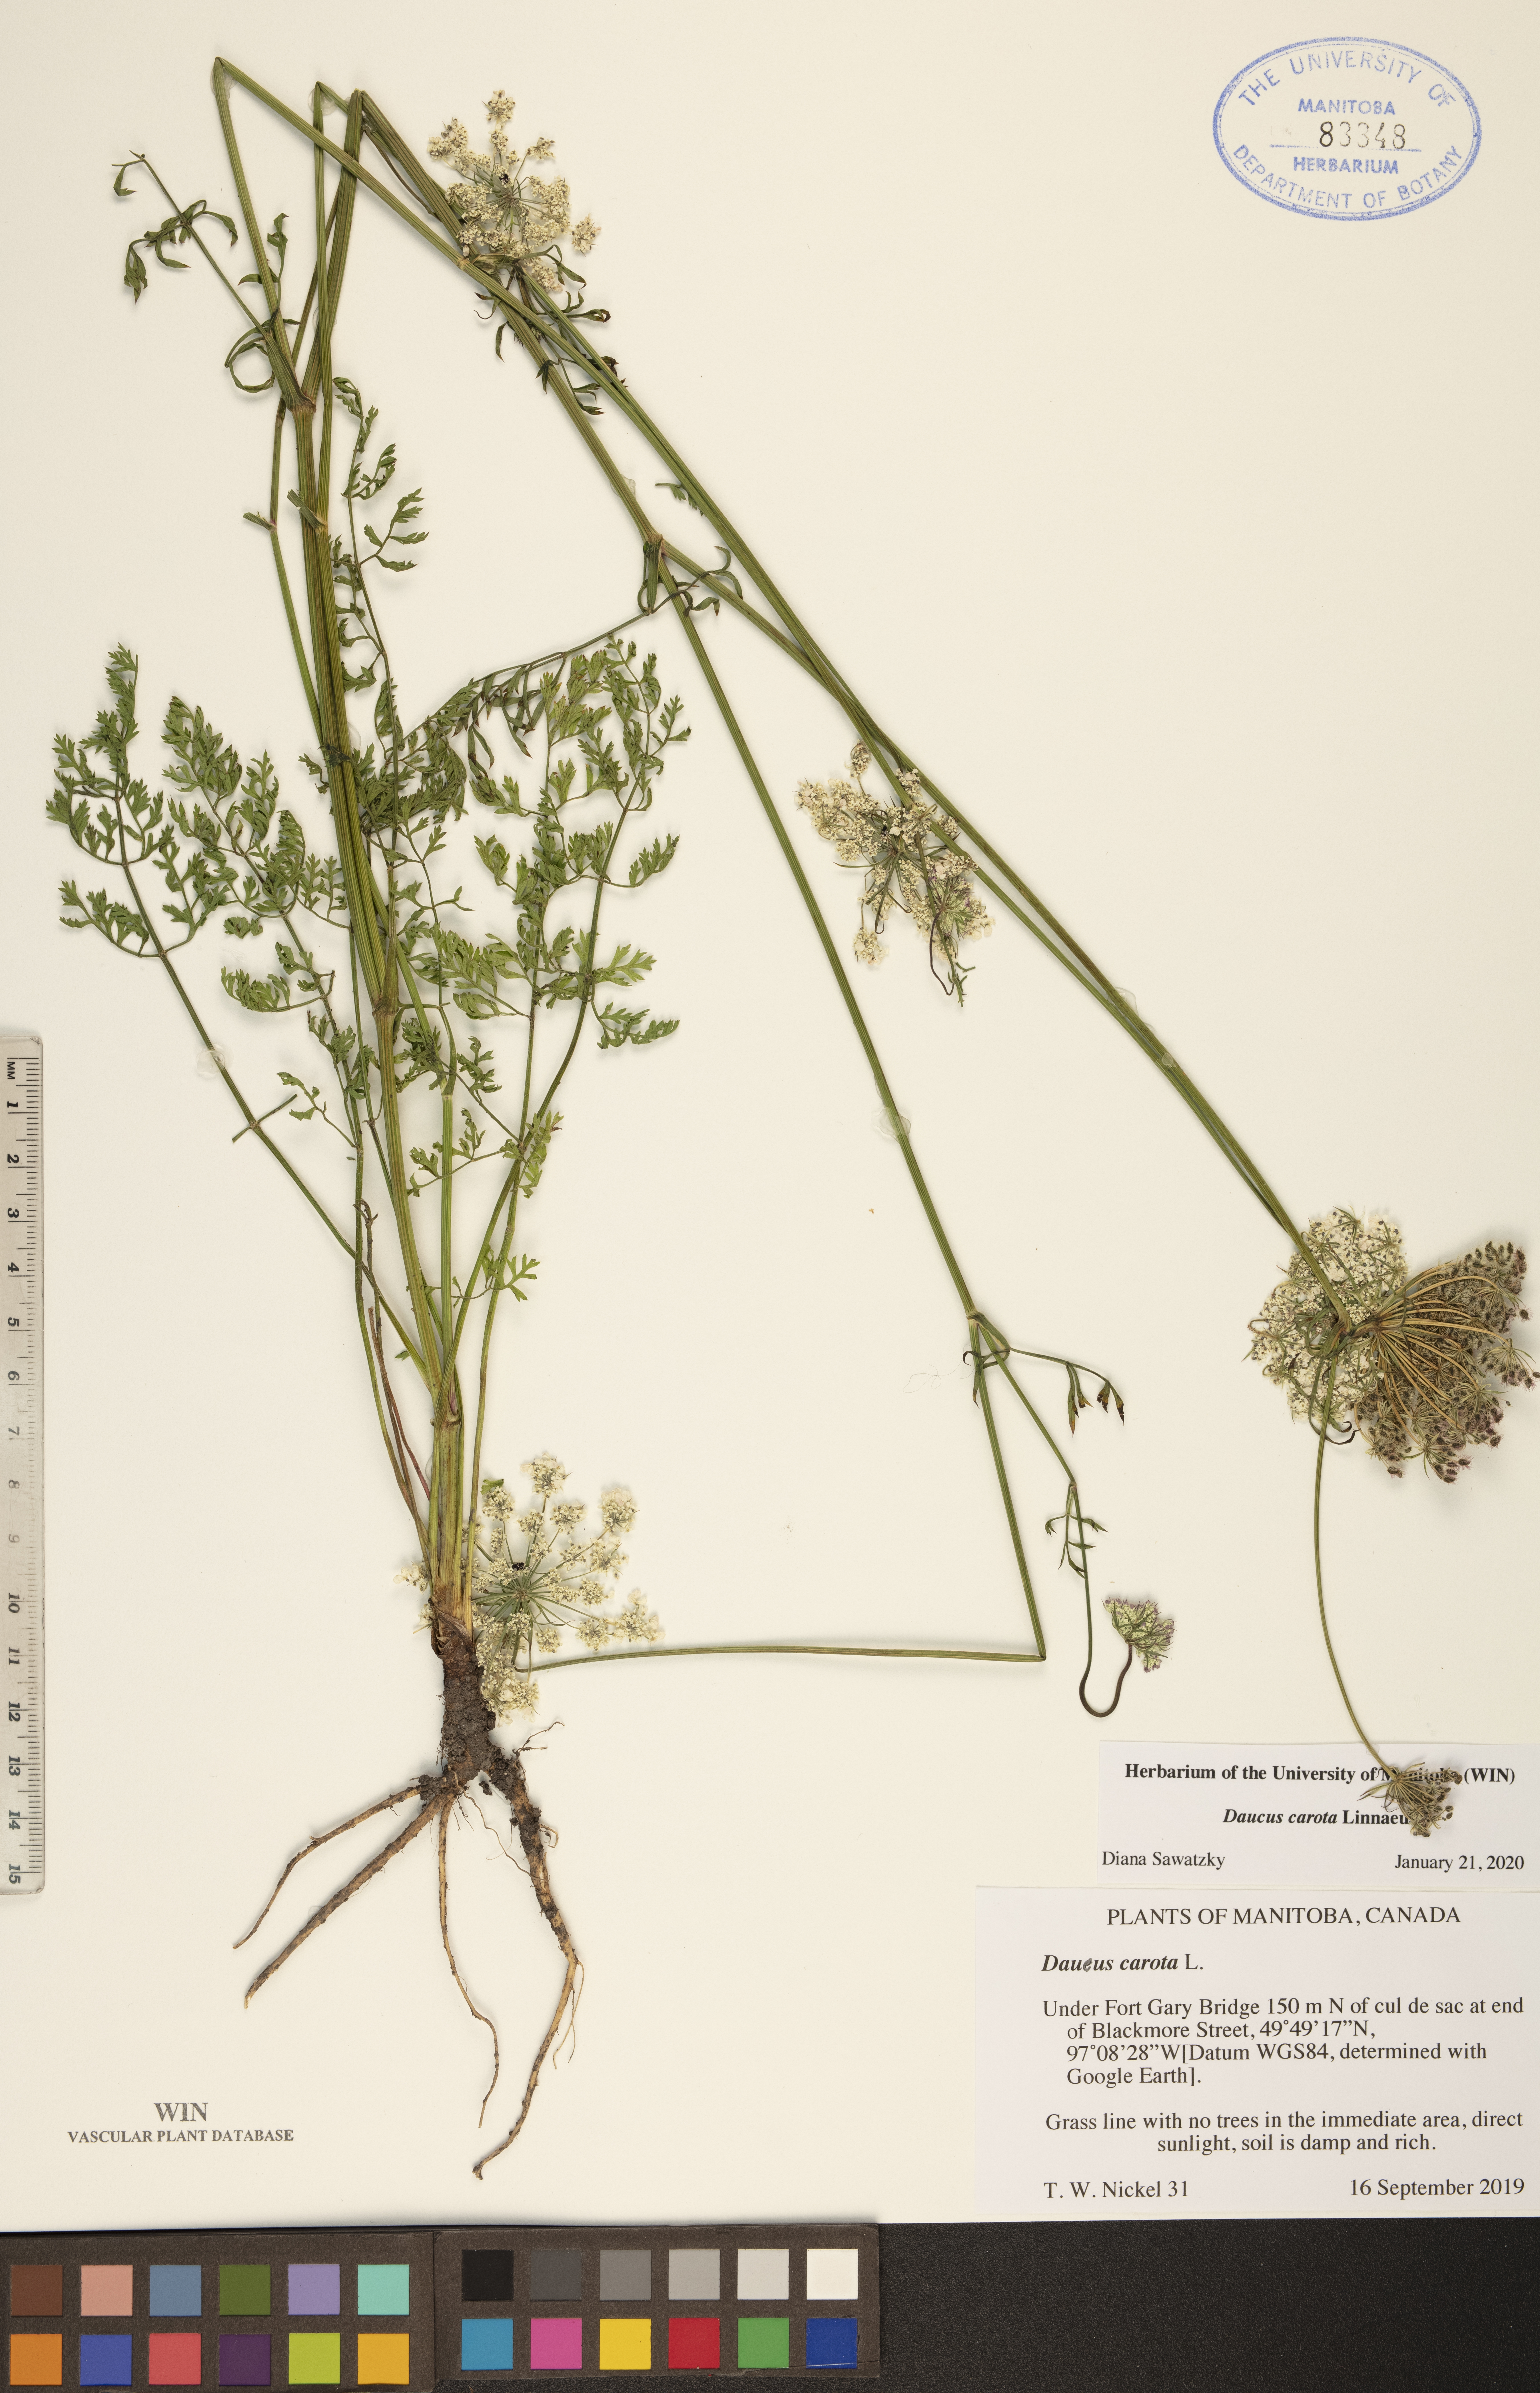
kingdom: Plantae
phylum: Tracheophyta
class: Magnoliopsida
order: Apiales
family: Apiaceae
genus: Daucus
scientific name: Daucus carota
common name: Wild carrot
